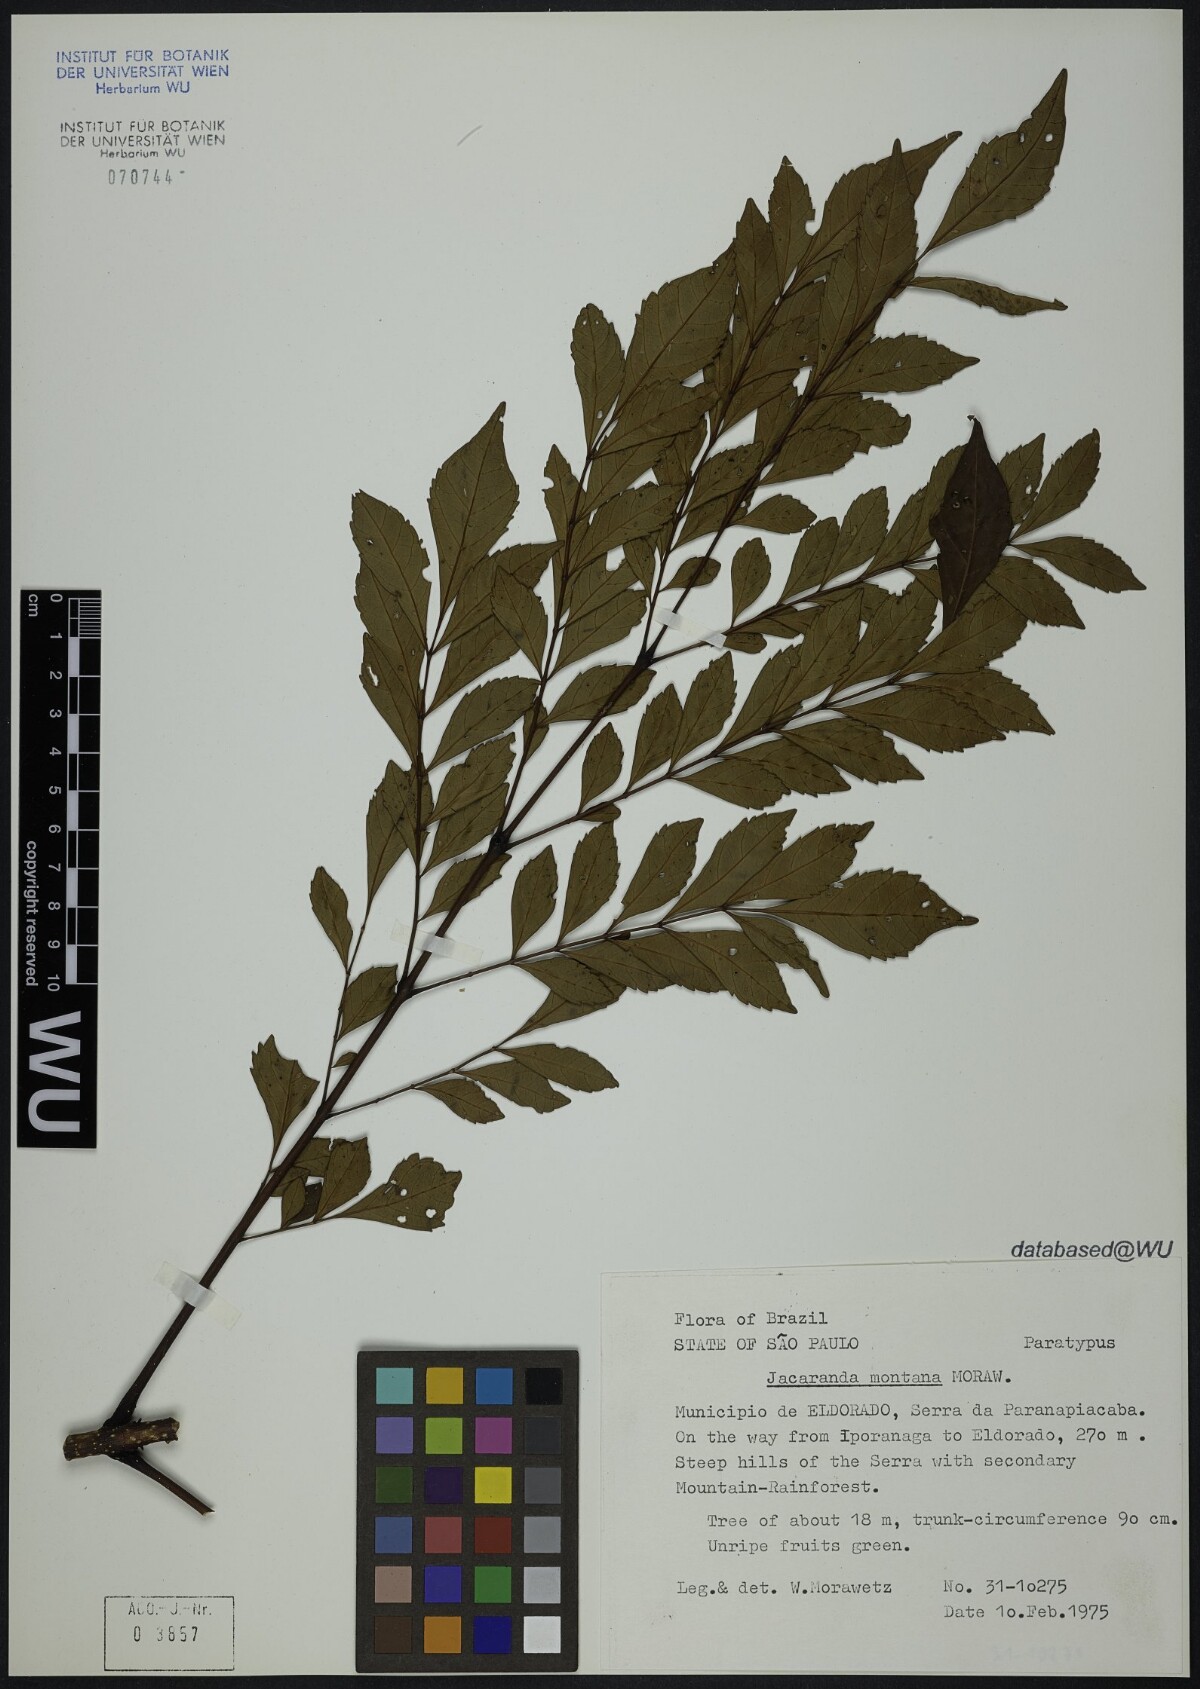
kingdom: Plantae
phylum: Tracheophyta
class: Magnoliopsida
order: Lamiales
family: Bignoniaceae
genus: Jacaranda
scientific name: Jacaranda montana
